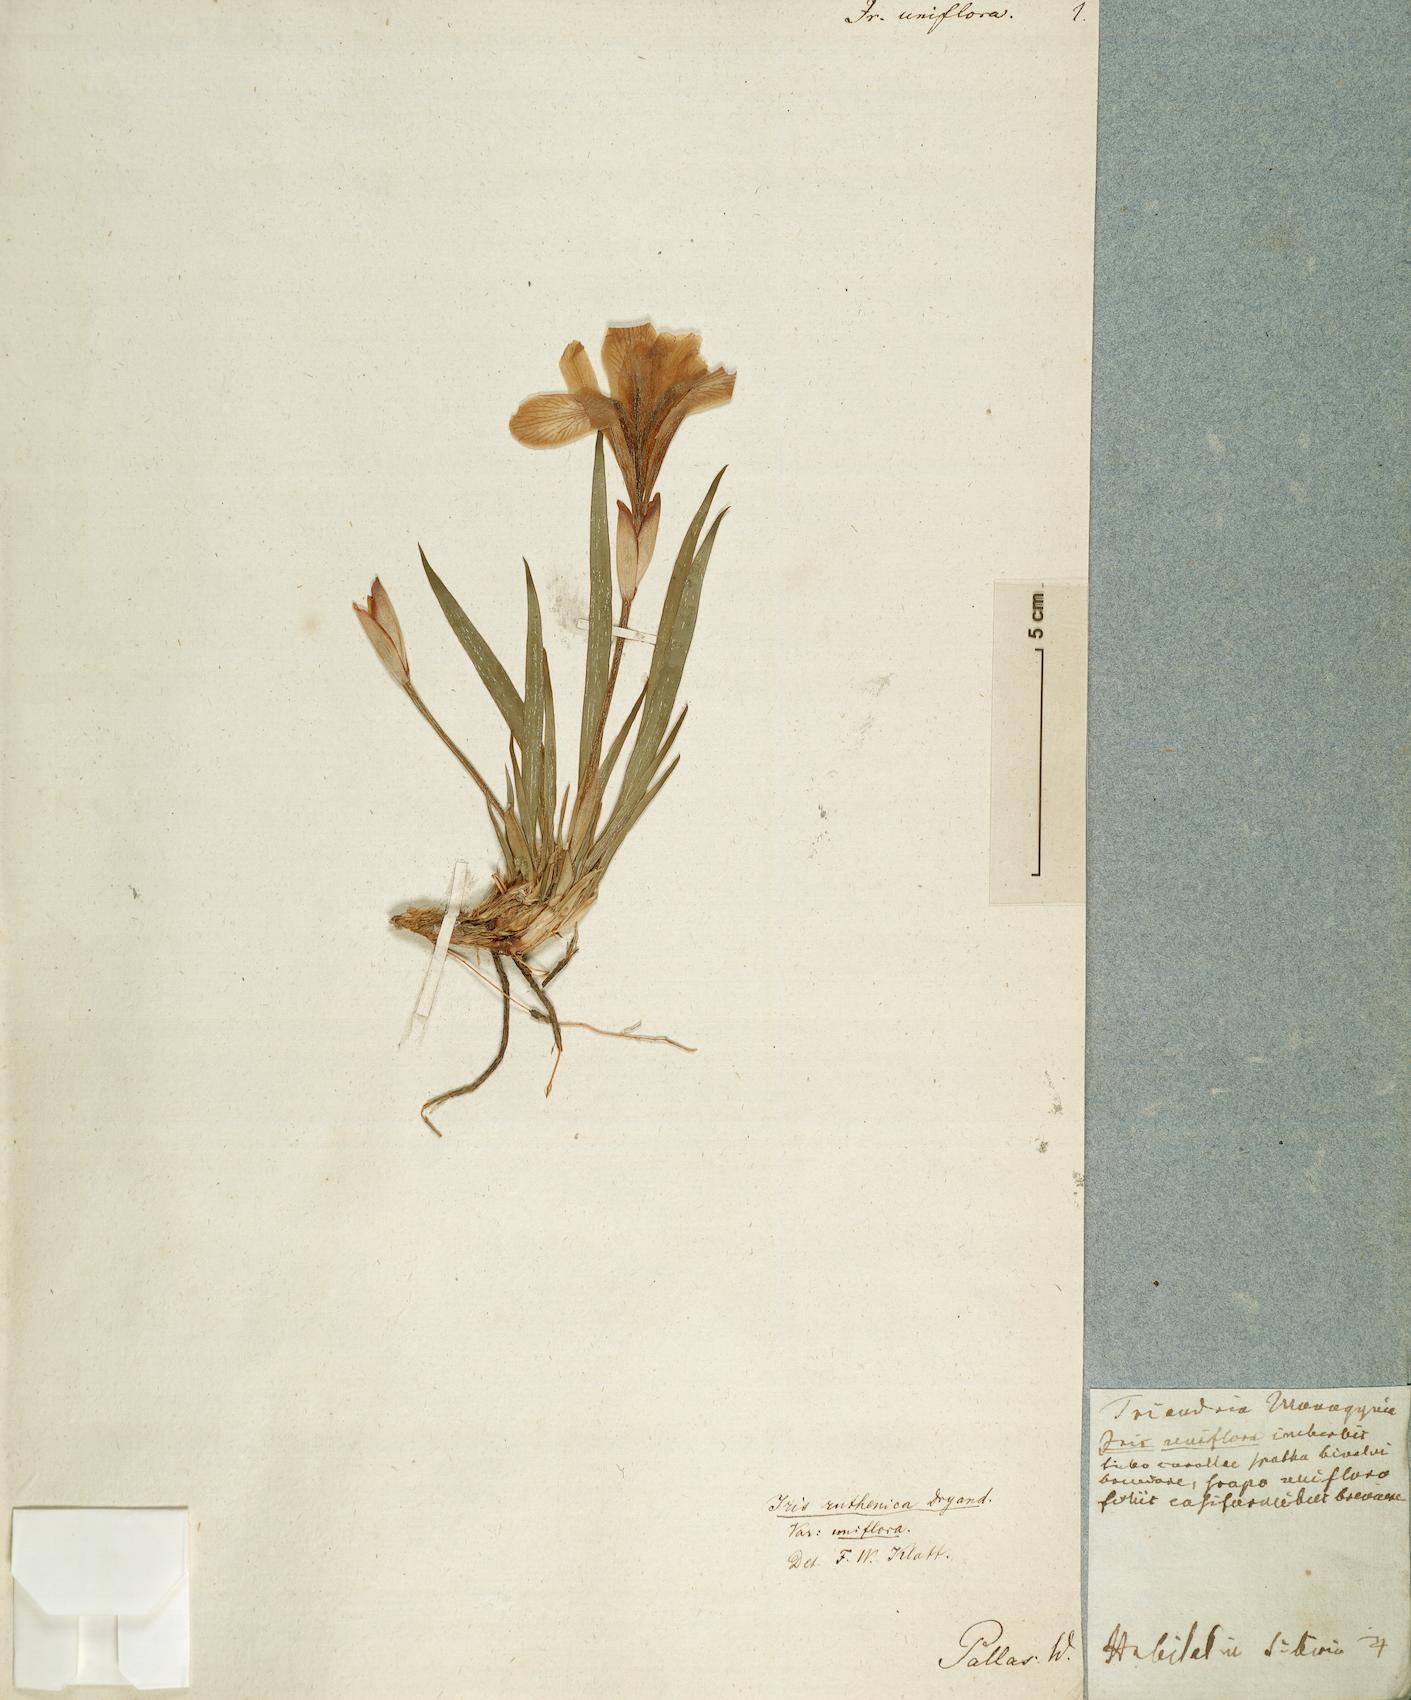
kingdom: Plantae
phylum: Tracheophyta
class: Liliopsida
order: Asparagales
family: Iridaceae
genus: Iris
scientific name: Iris uniflora
